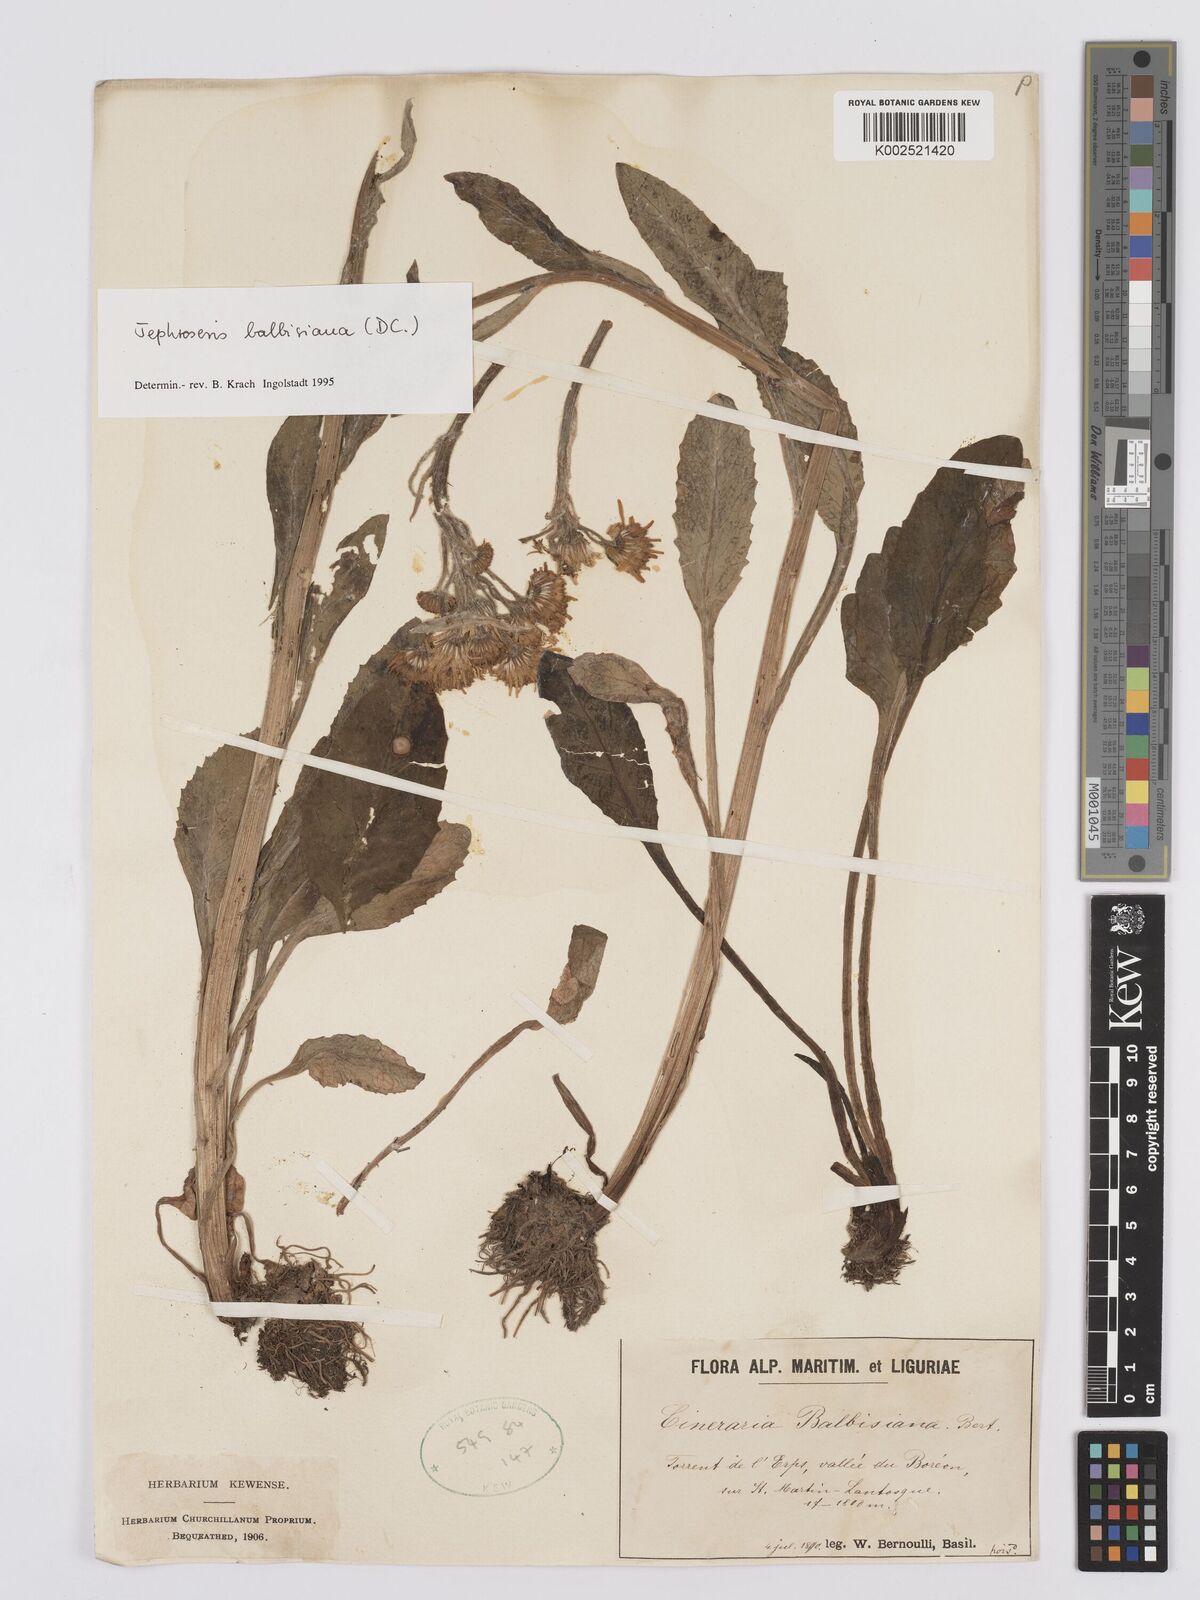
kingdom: Plantae
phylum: Tracheophyta
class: Magnoliopsida
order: Asterales
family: Asteraceae
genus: Tephroseris
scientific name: Tephroseris balbisiana
